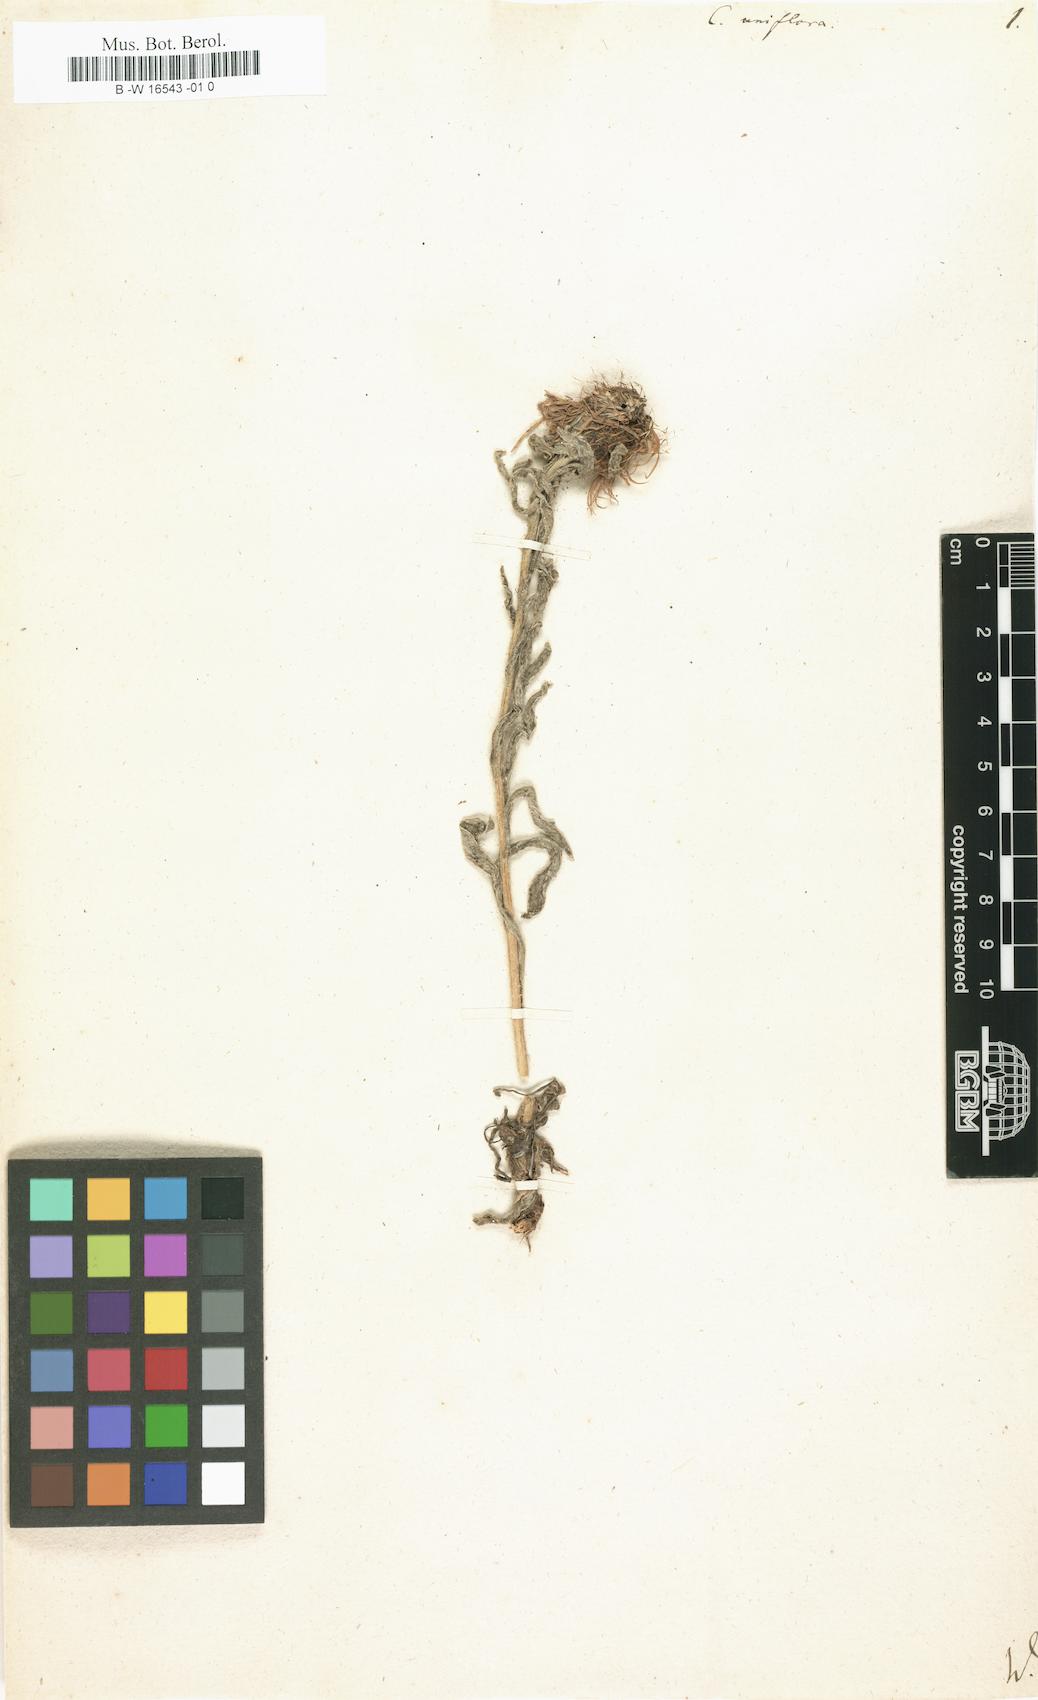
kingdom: Plantae
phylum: Tracheophyta
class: Magnoliopsida
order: Asterales
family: Asteraceae
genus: Centaurea
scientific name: Centaurea uniflora
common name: Singleflower knapweed
